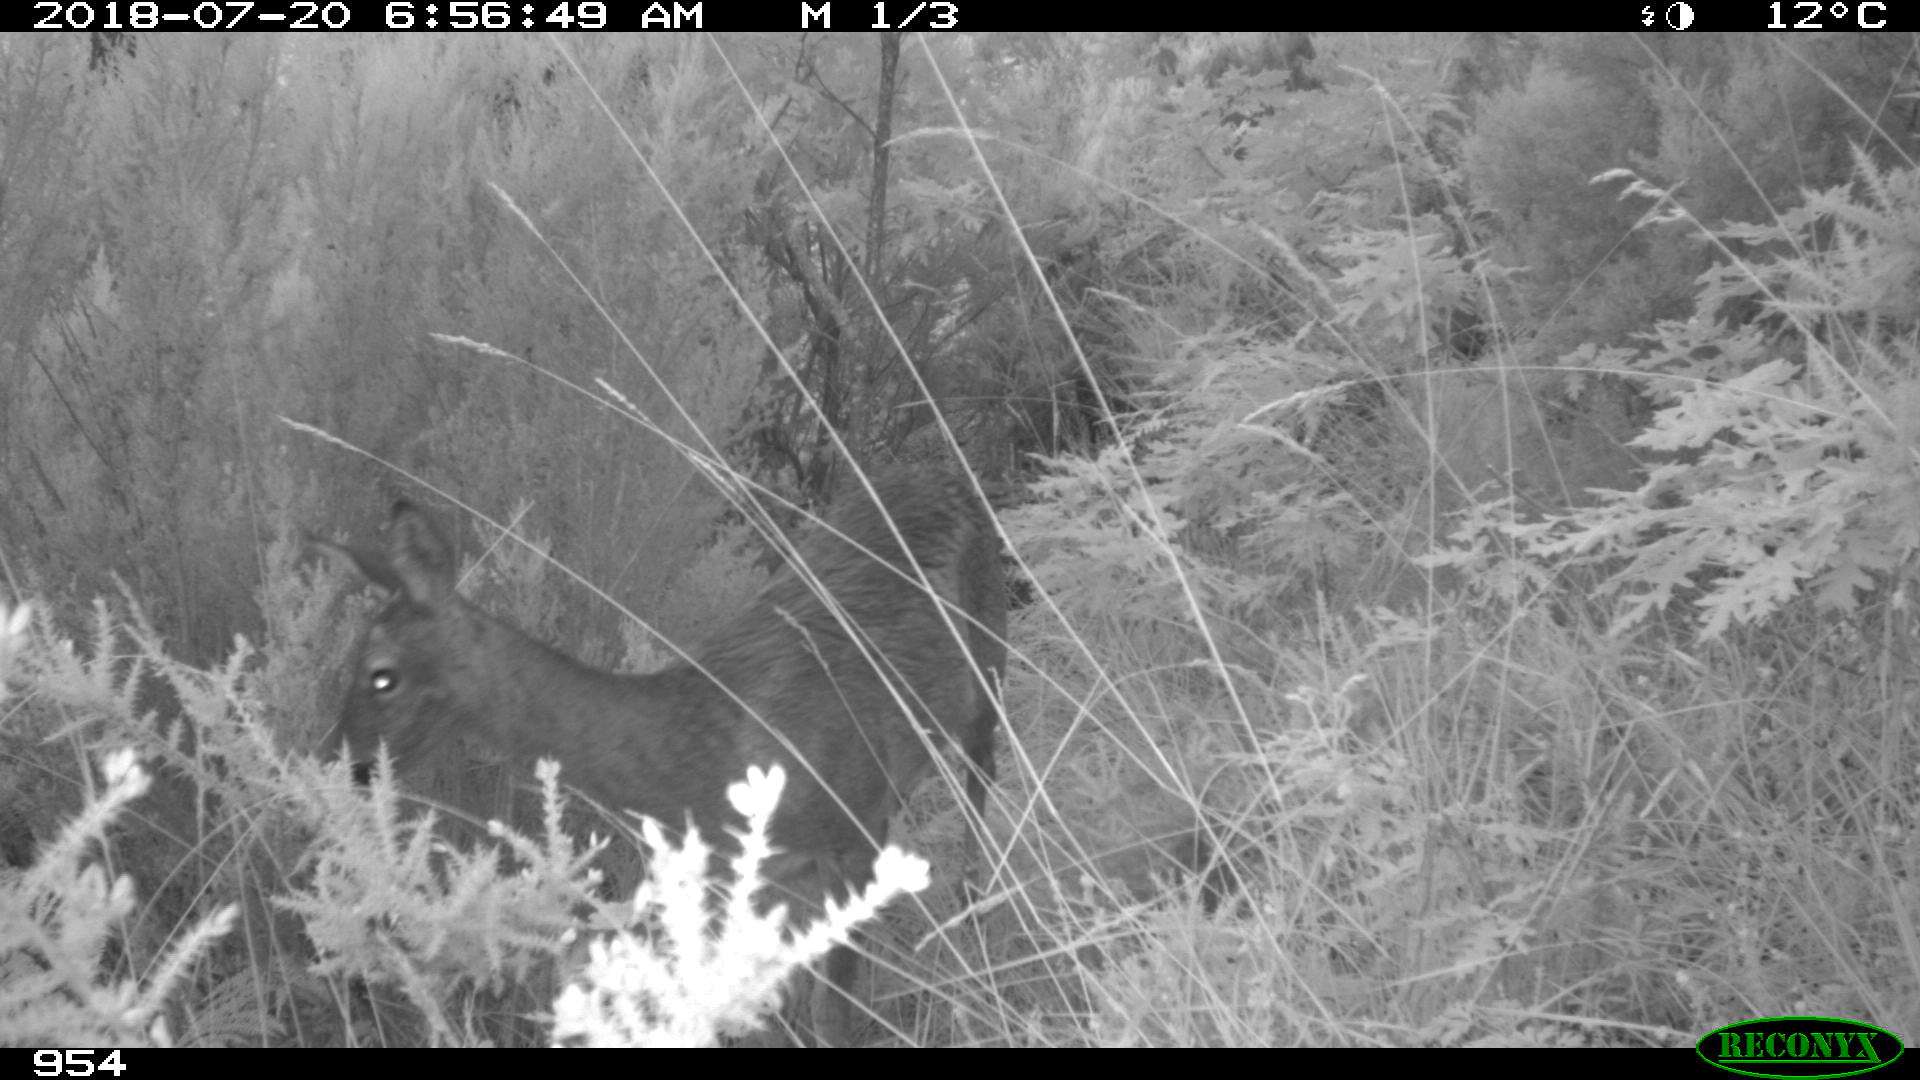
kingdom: Animalia
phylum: Chordata
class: Mammalia
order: Artiodactyla
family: Cervidae
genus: Capreolus
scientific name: Capreolus capreolus
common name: Western roe deer
